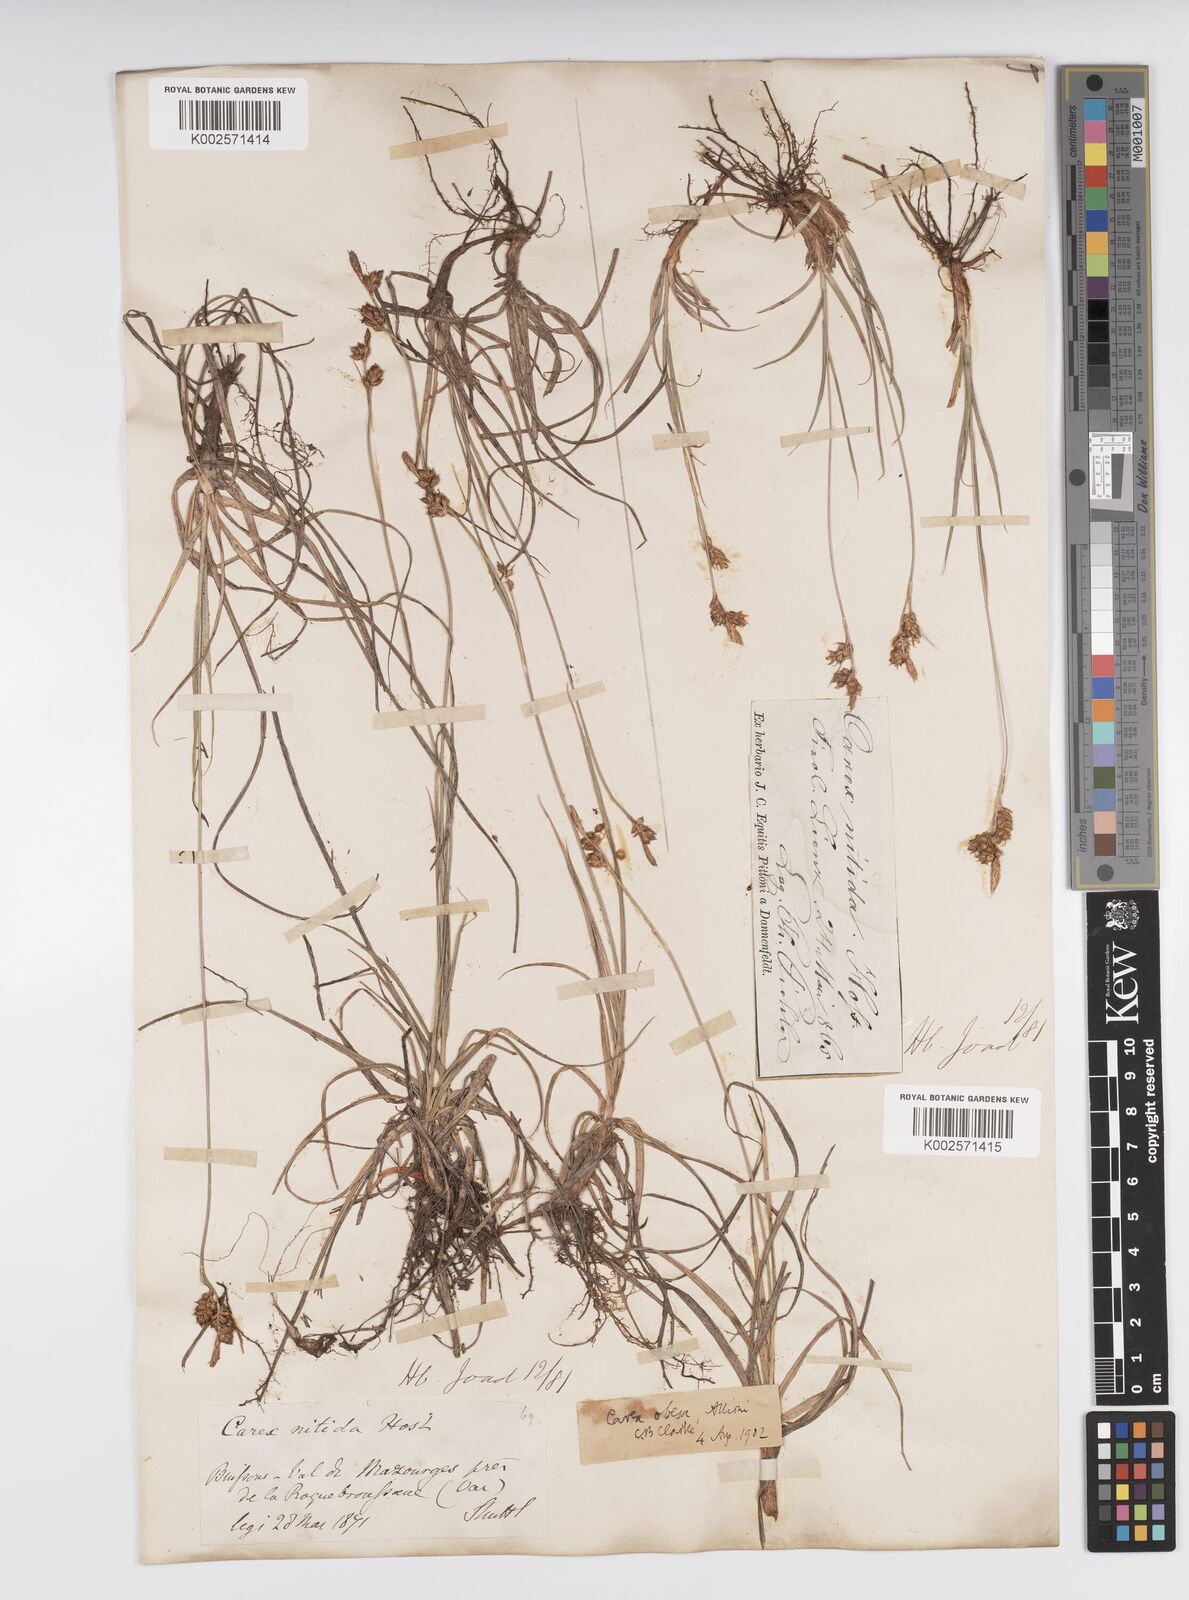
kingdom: Plantae
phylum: Tracheophyta
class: Liliopsida
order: Poales
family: Cyperaceae
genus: Carex
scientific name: Carex liparocarpos
